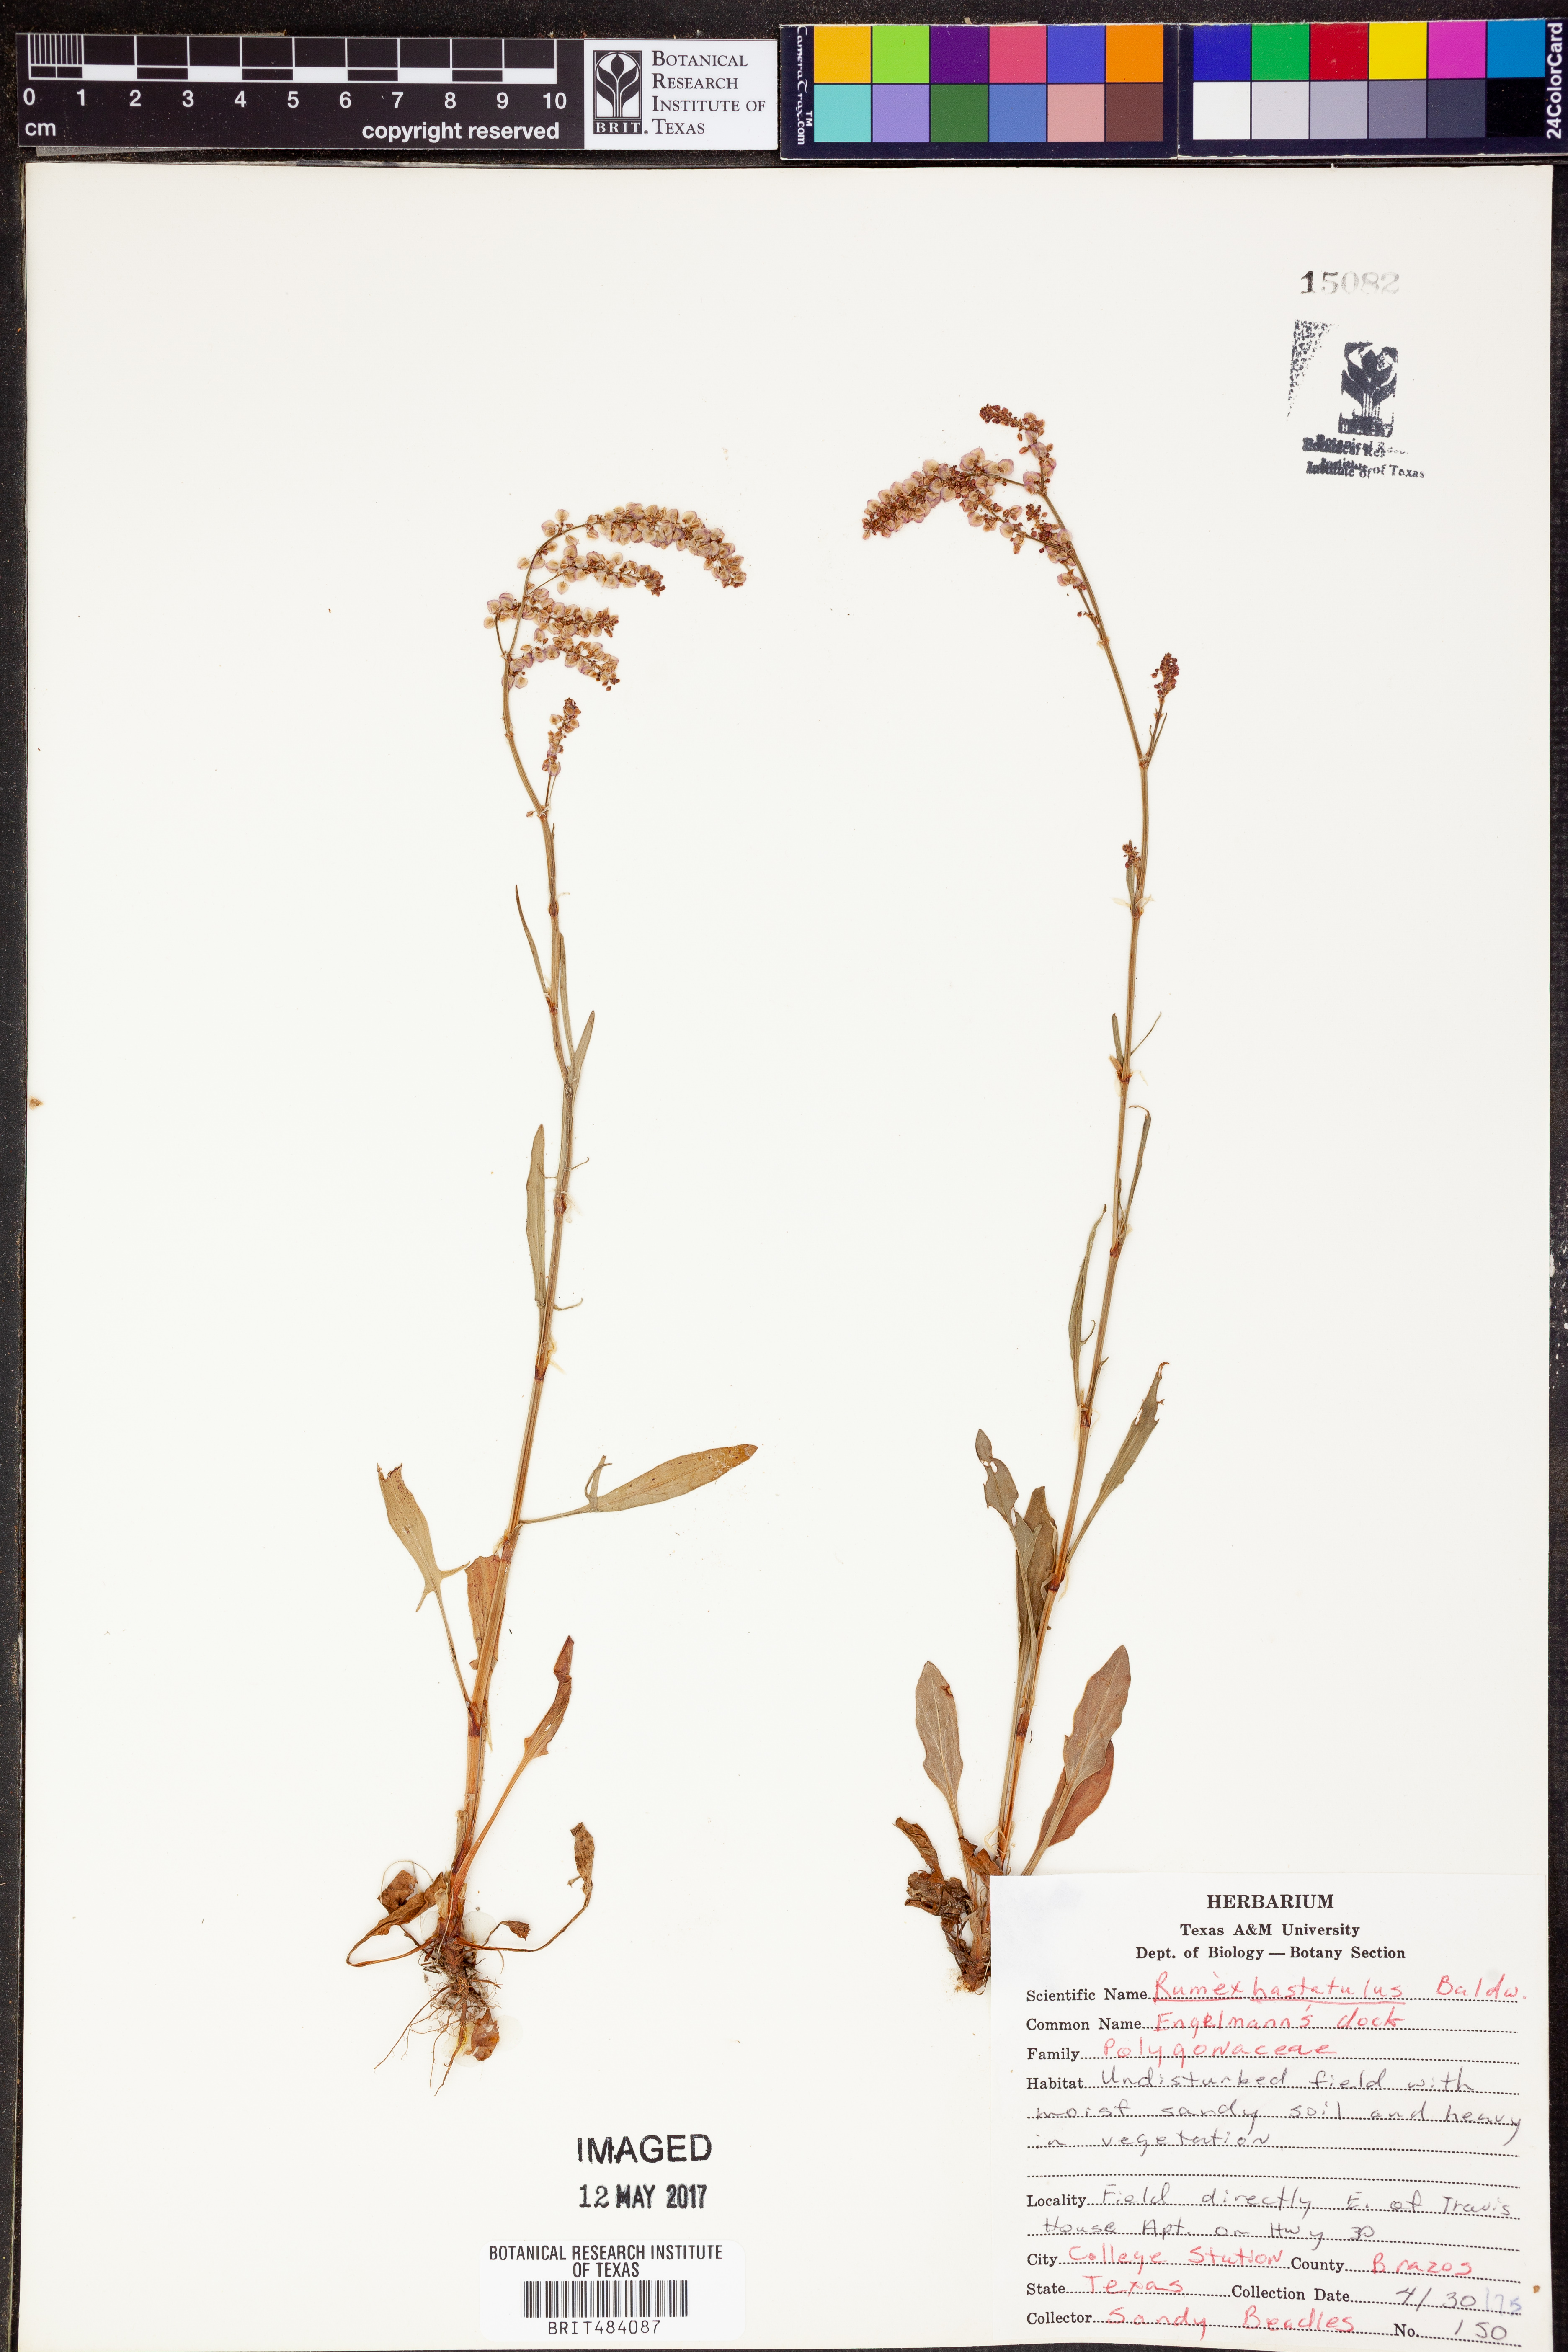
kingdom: Plantae
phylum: Tracheophyta
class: Magnoliopsida
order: Caryophyllales
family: Polygonaceae
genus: Rumex
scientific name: Rumex hastatulus
